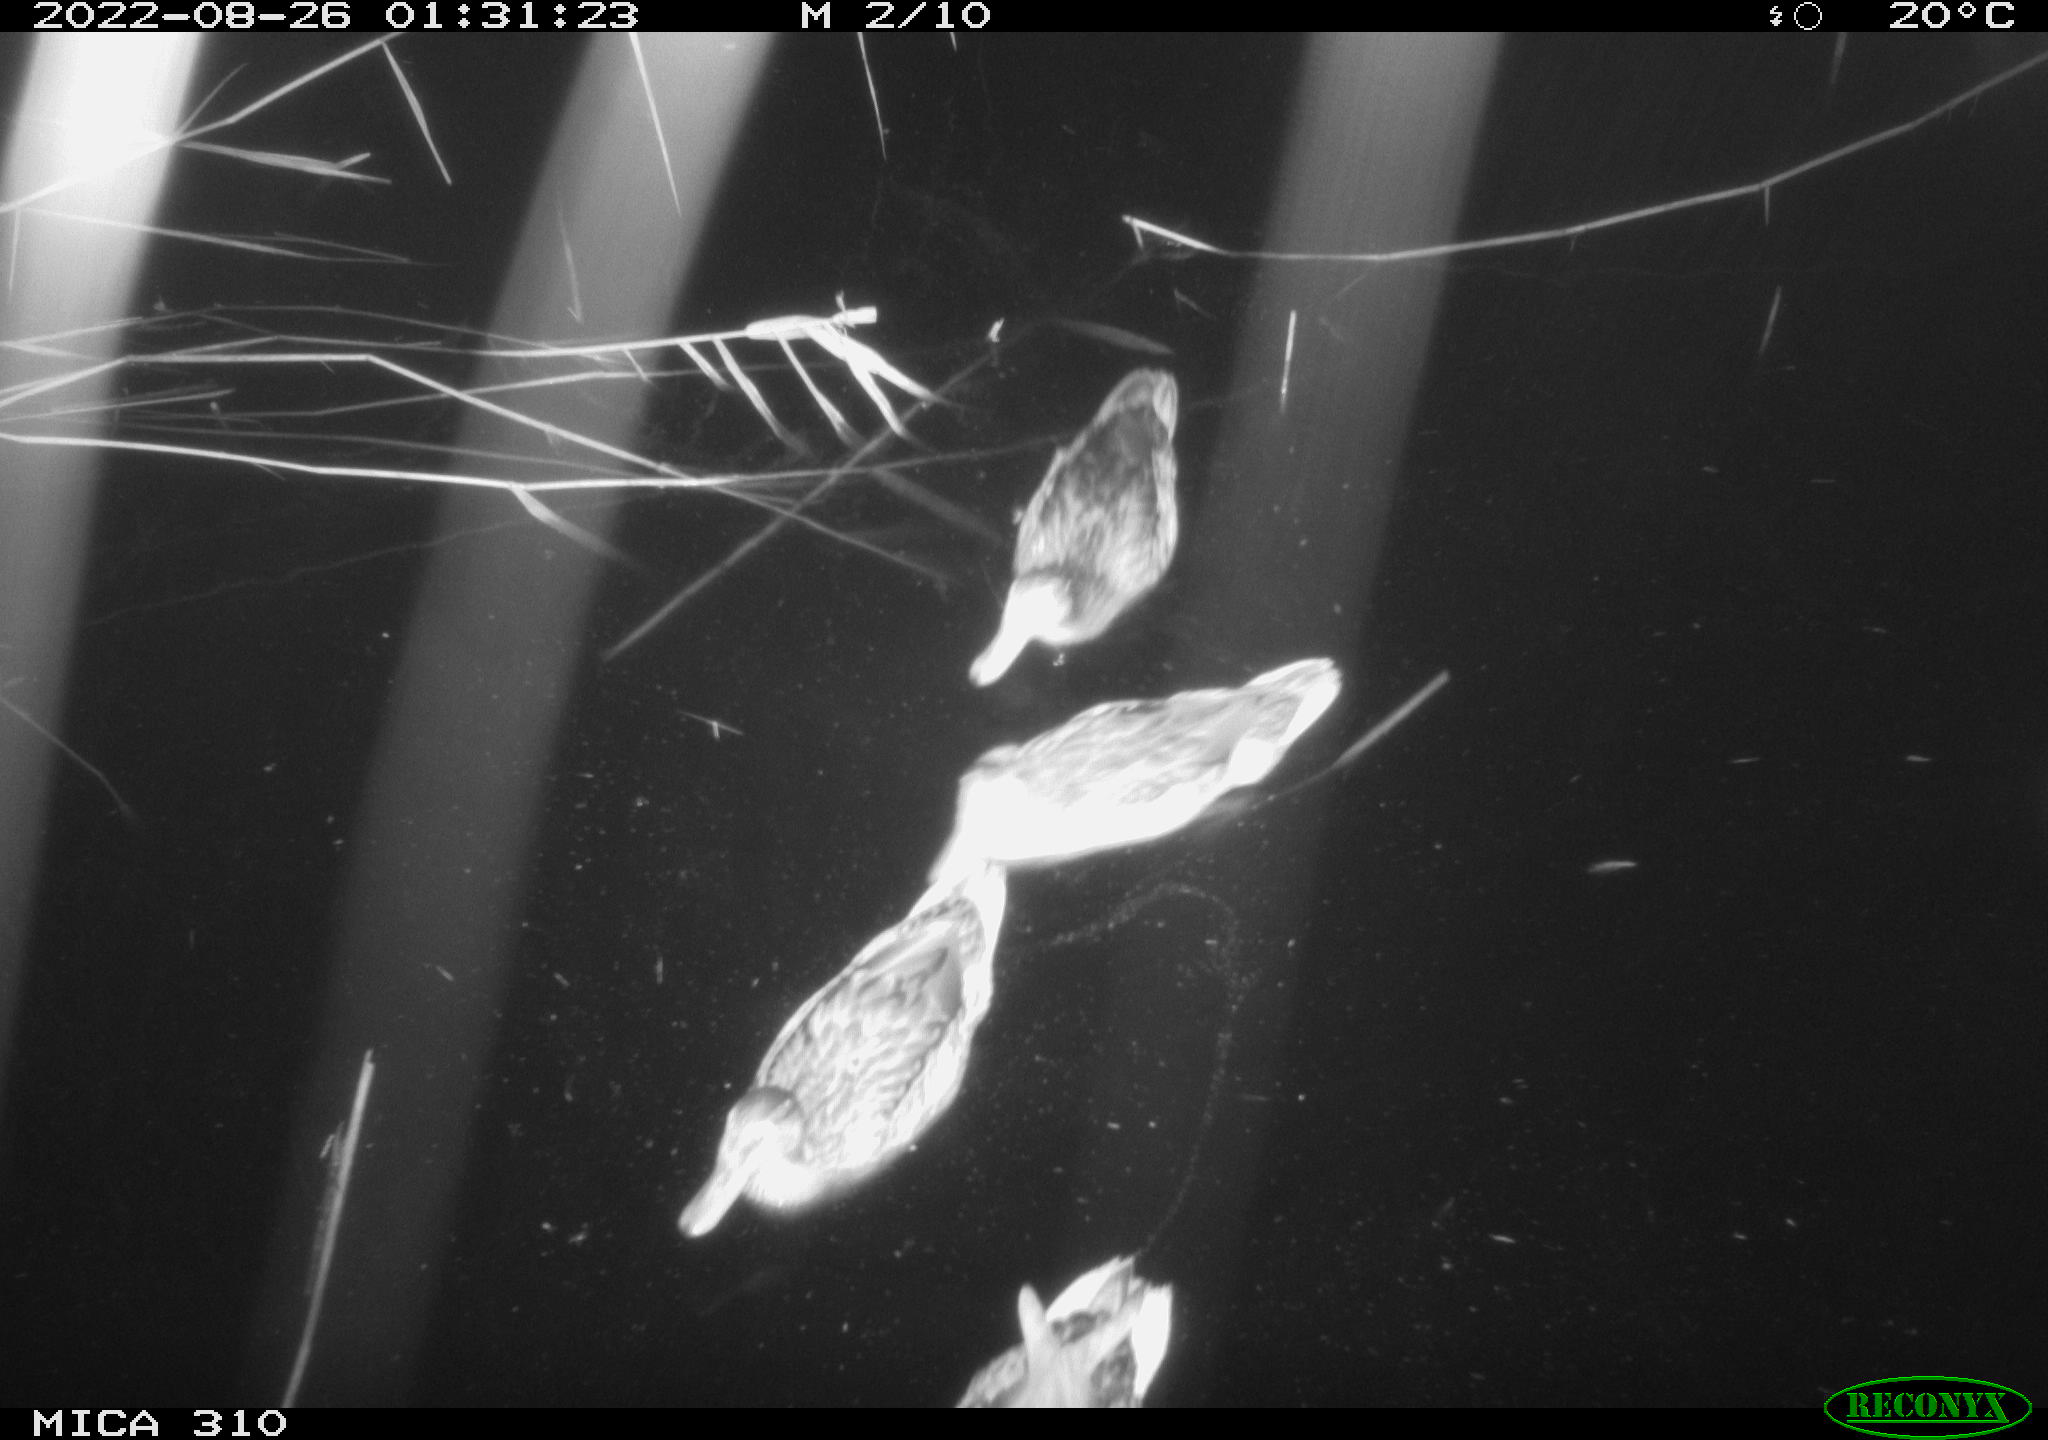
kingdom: Animalia
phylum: Chordata
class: Aves
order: Anseriformes
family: Anatidae
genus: Anas
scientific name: Anas platyrhynchos
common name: Mallard
